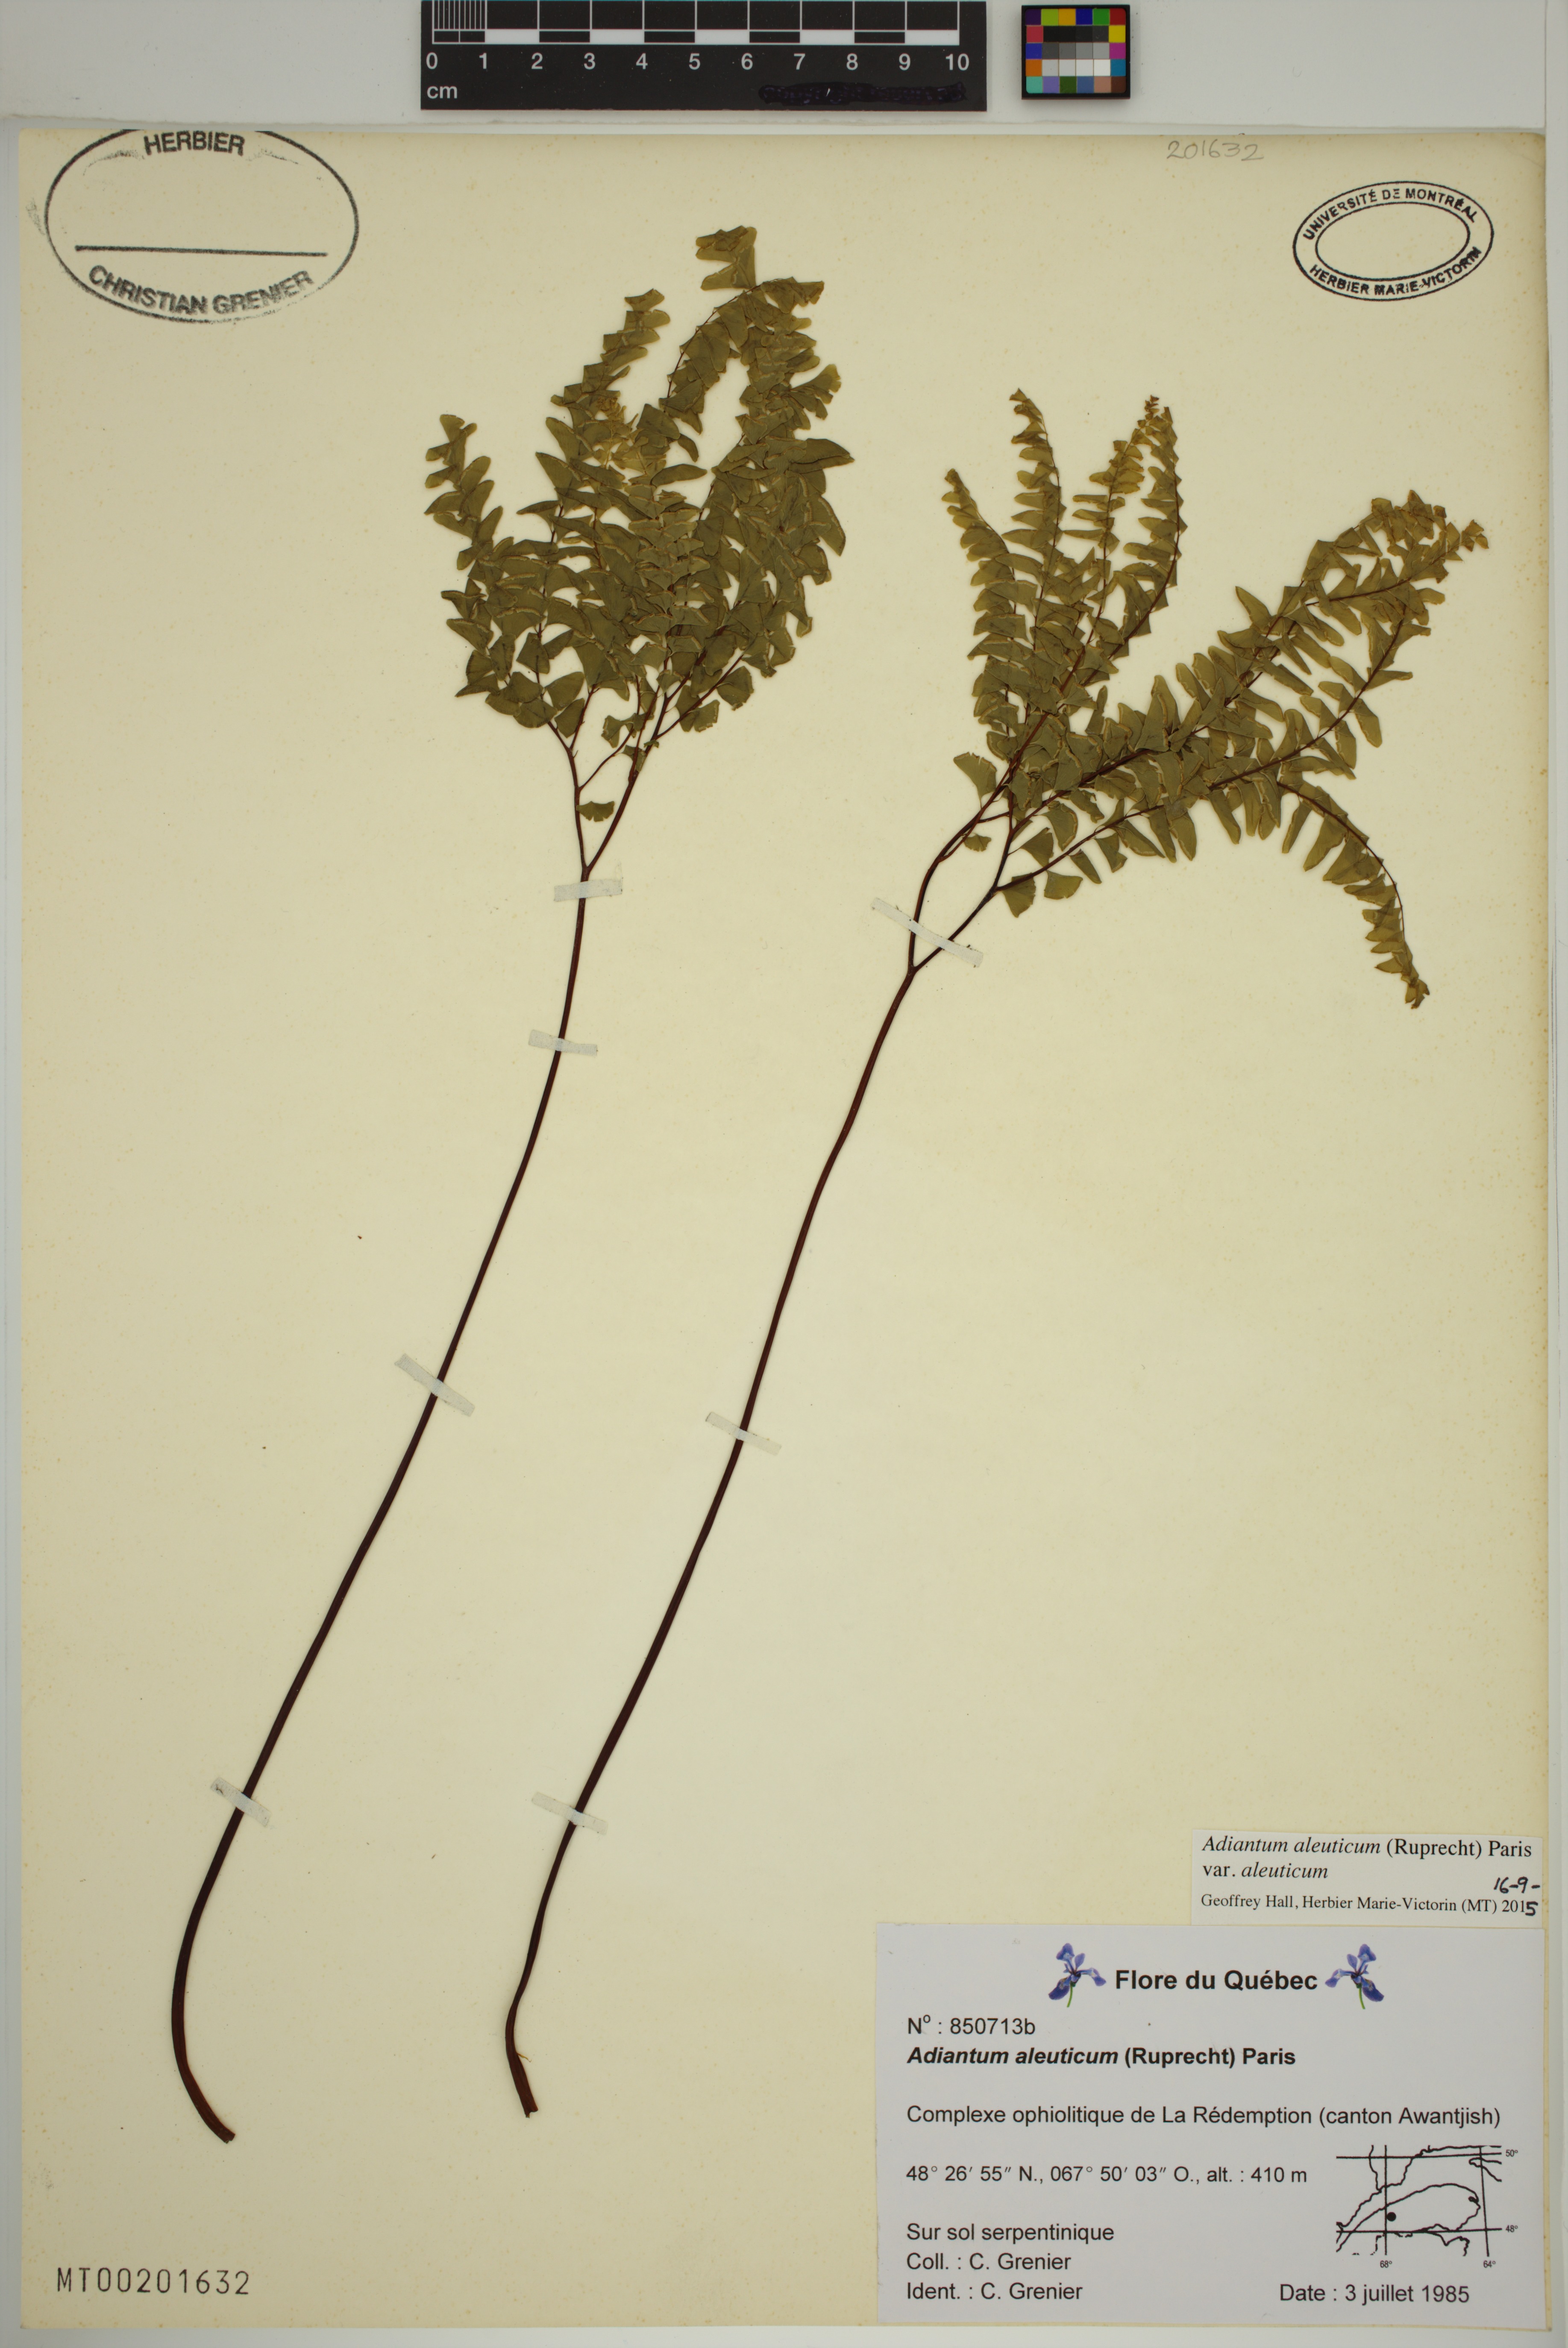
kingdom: Plantae
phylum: Tracheophyta
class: Polypodiopsida
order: Polypodiales
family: Pteridaceae
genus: Adiantum
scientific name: Adiantum aleuticum
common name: Aleutian maidenhair fern
